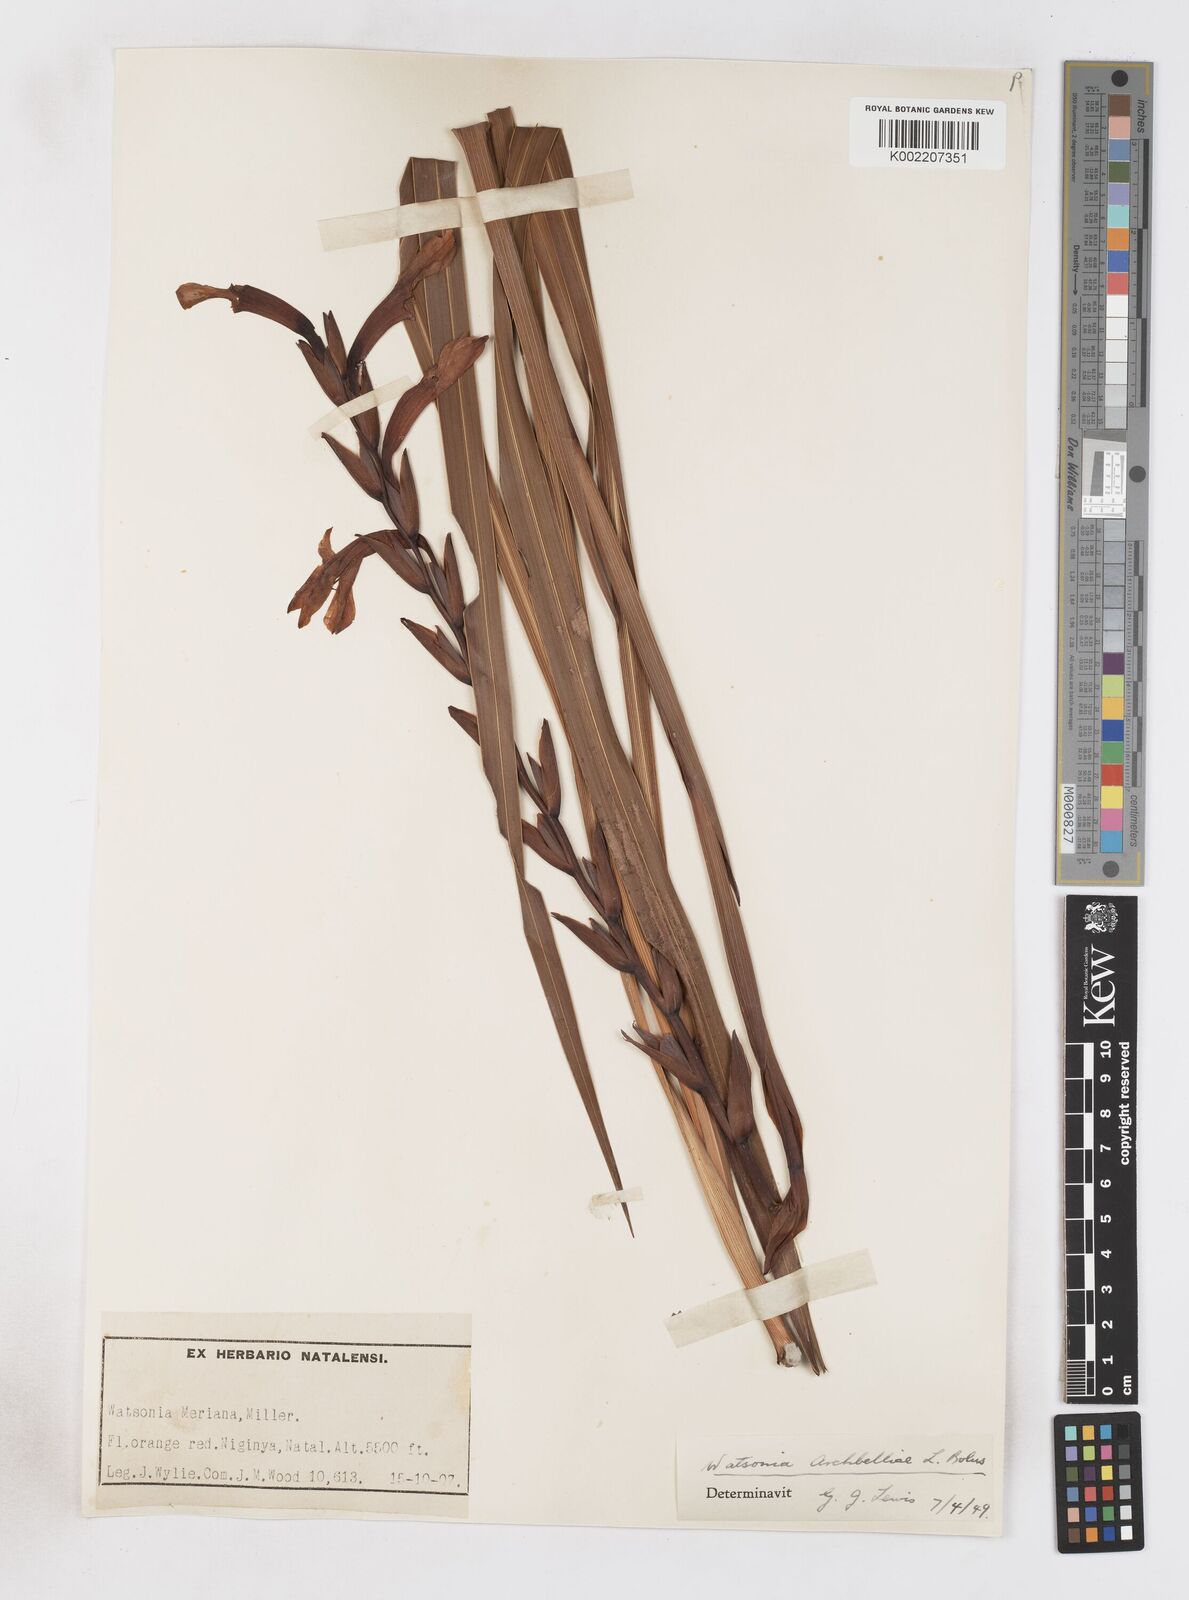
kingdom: Plantae
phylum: Tracheophyta
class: Liliopsida
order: Asparagales
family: Iridaceae
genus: Watsonia
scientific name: Watsonia pillansii
